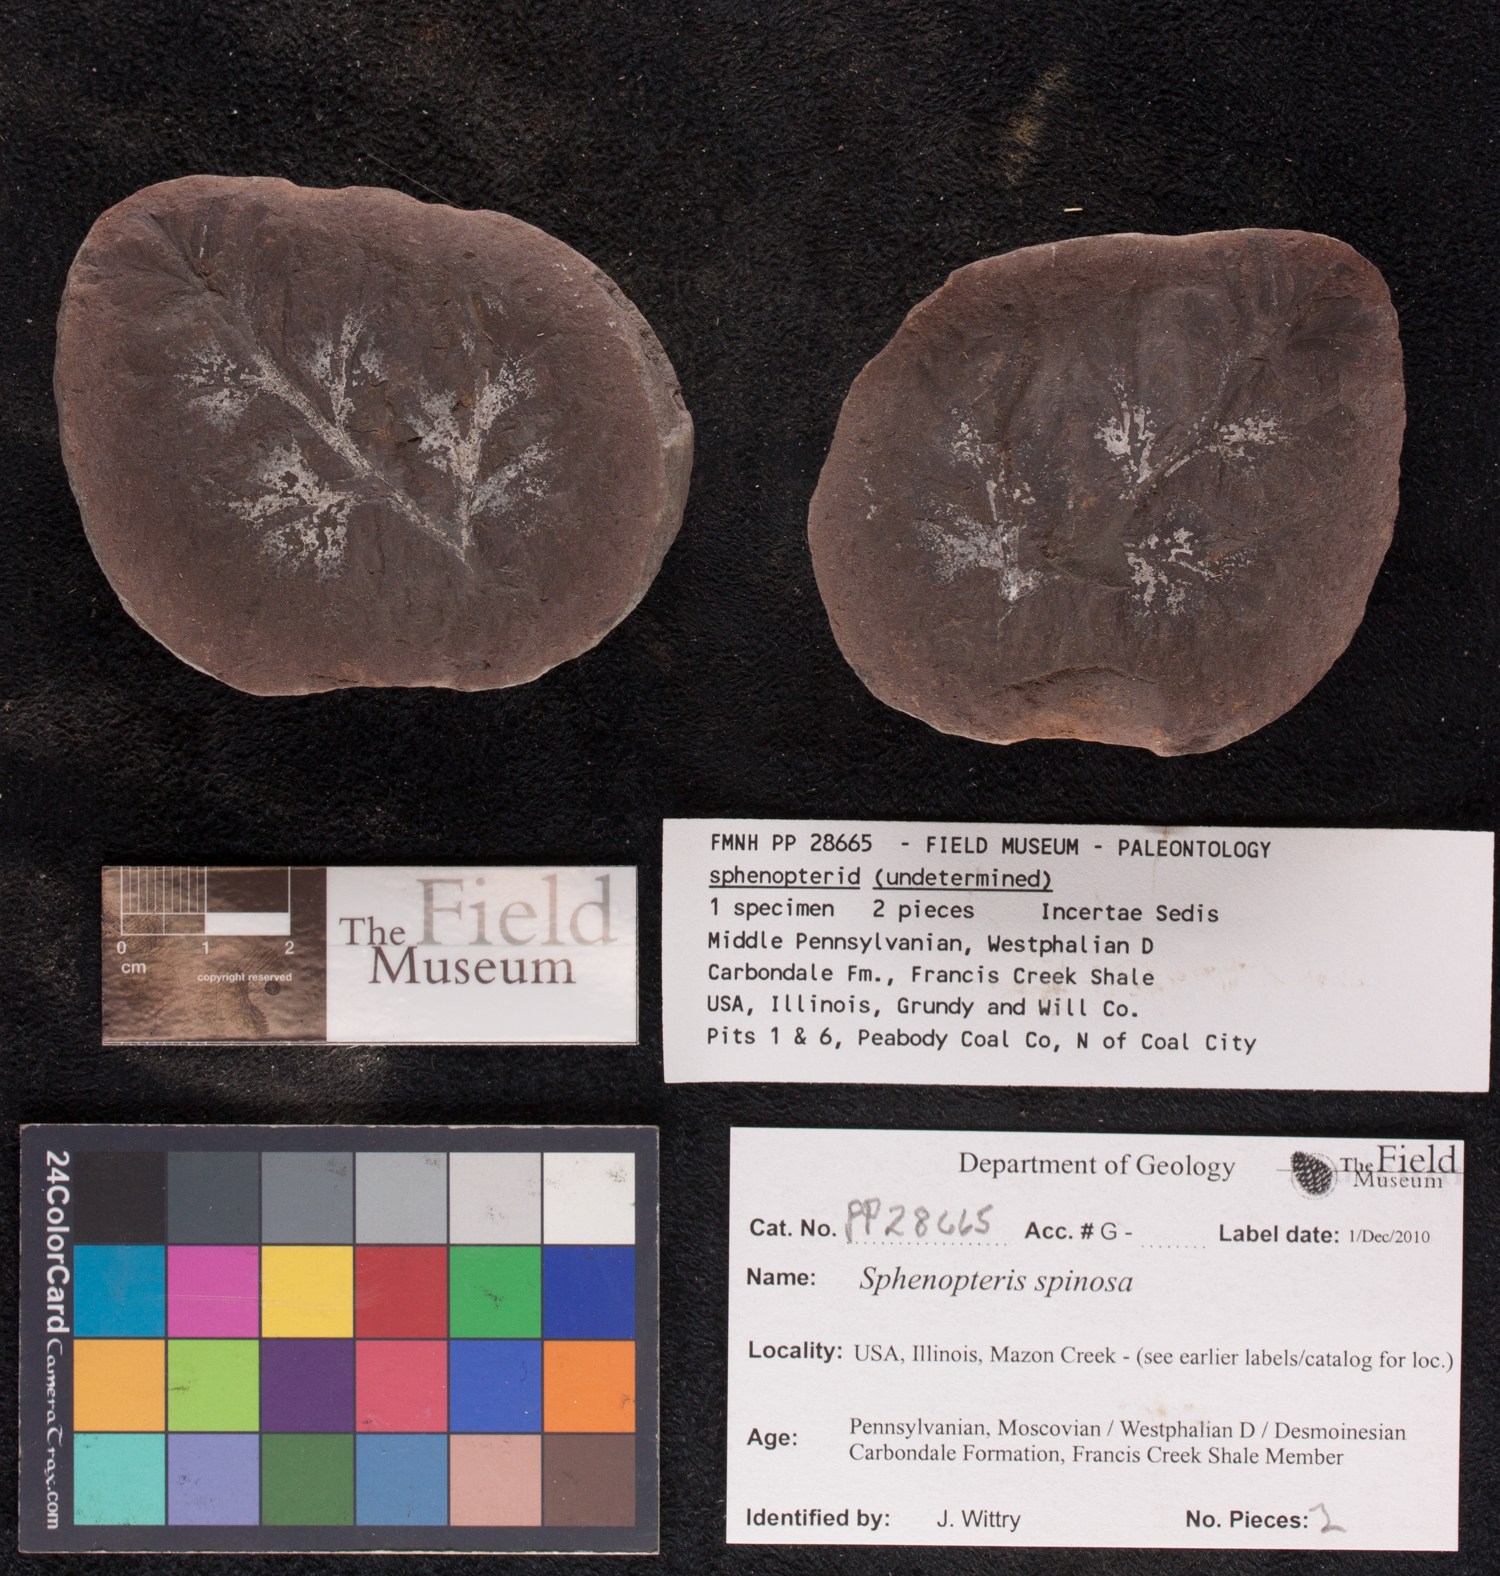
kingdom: Plantae
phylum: Tracheophyta
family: Lyginopteridaceae
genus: Sphenopteris
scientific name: Sphenopteris
